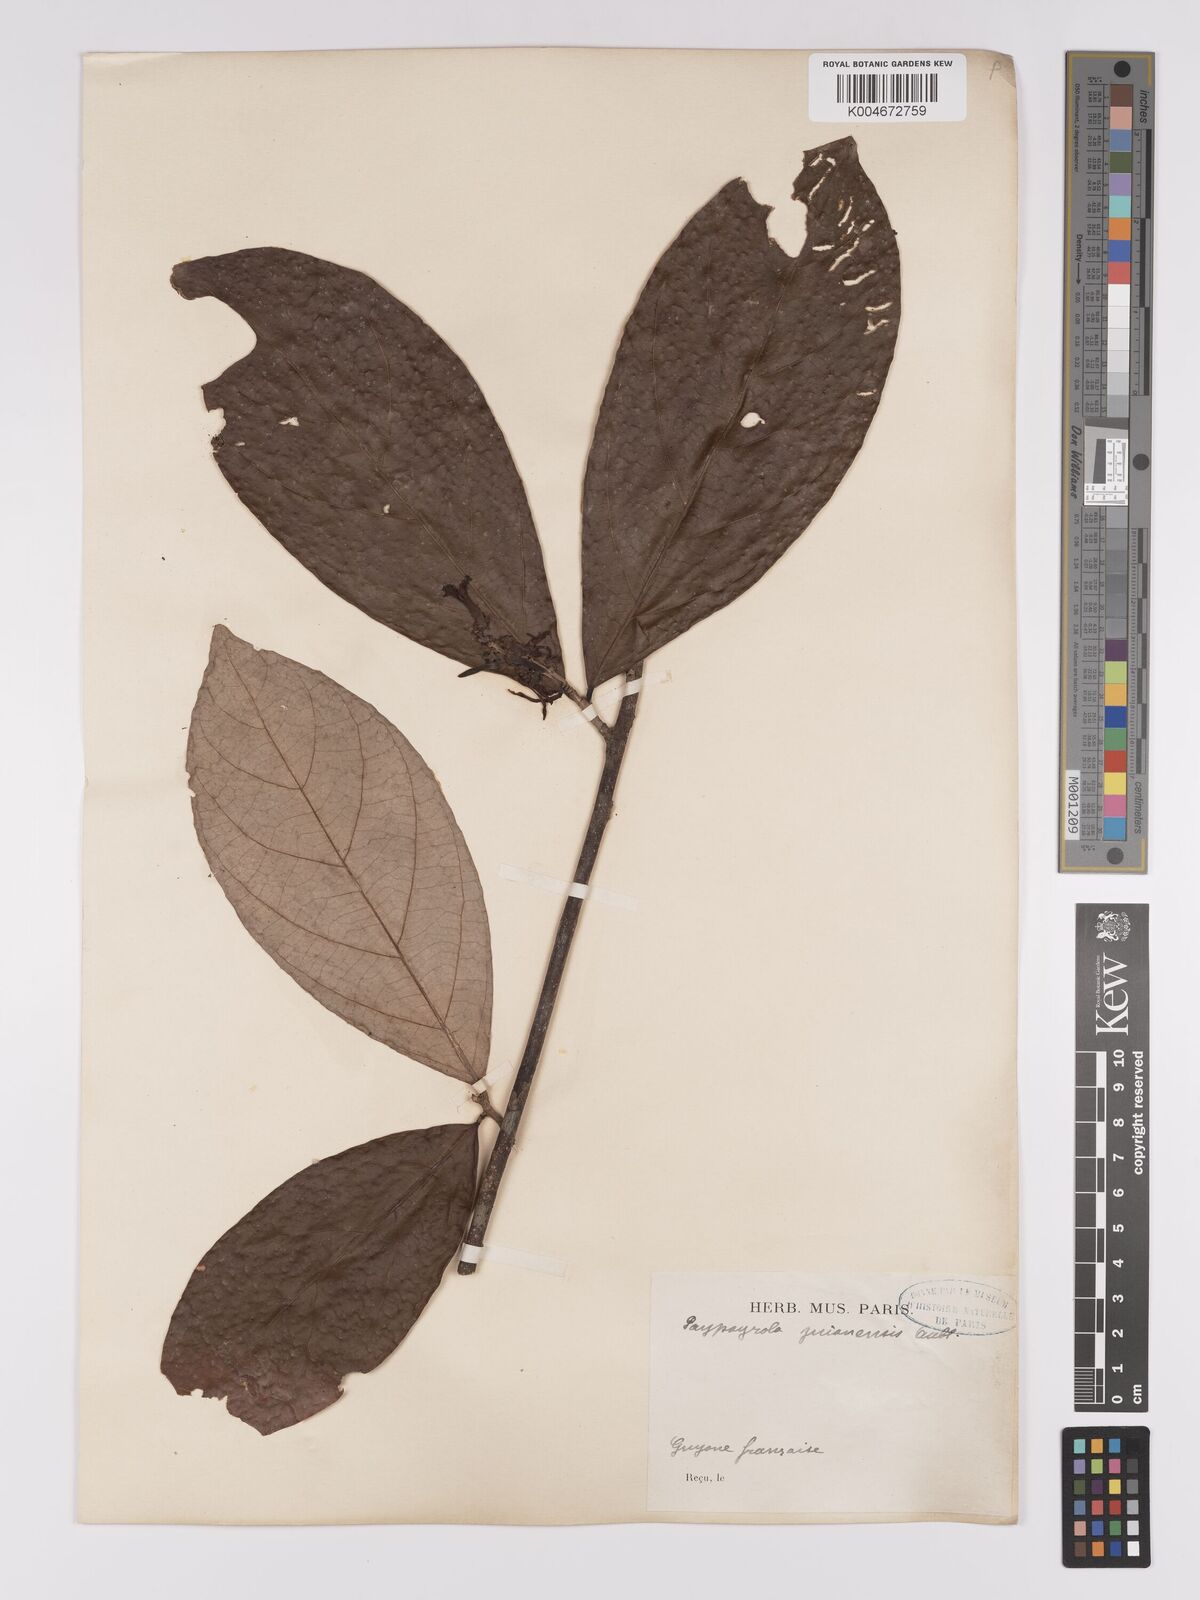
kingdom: Plantae
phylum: Tracheophyta
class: Magnoliopsida
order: Malpighiales
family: Violaceae
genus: Paypayrola
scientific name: Paypayrola guianensis
